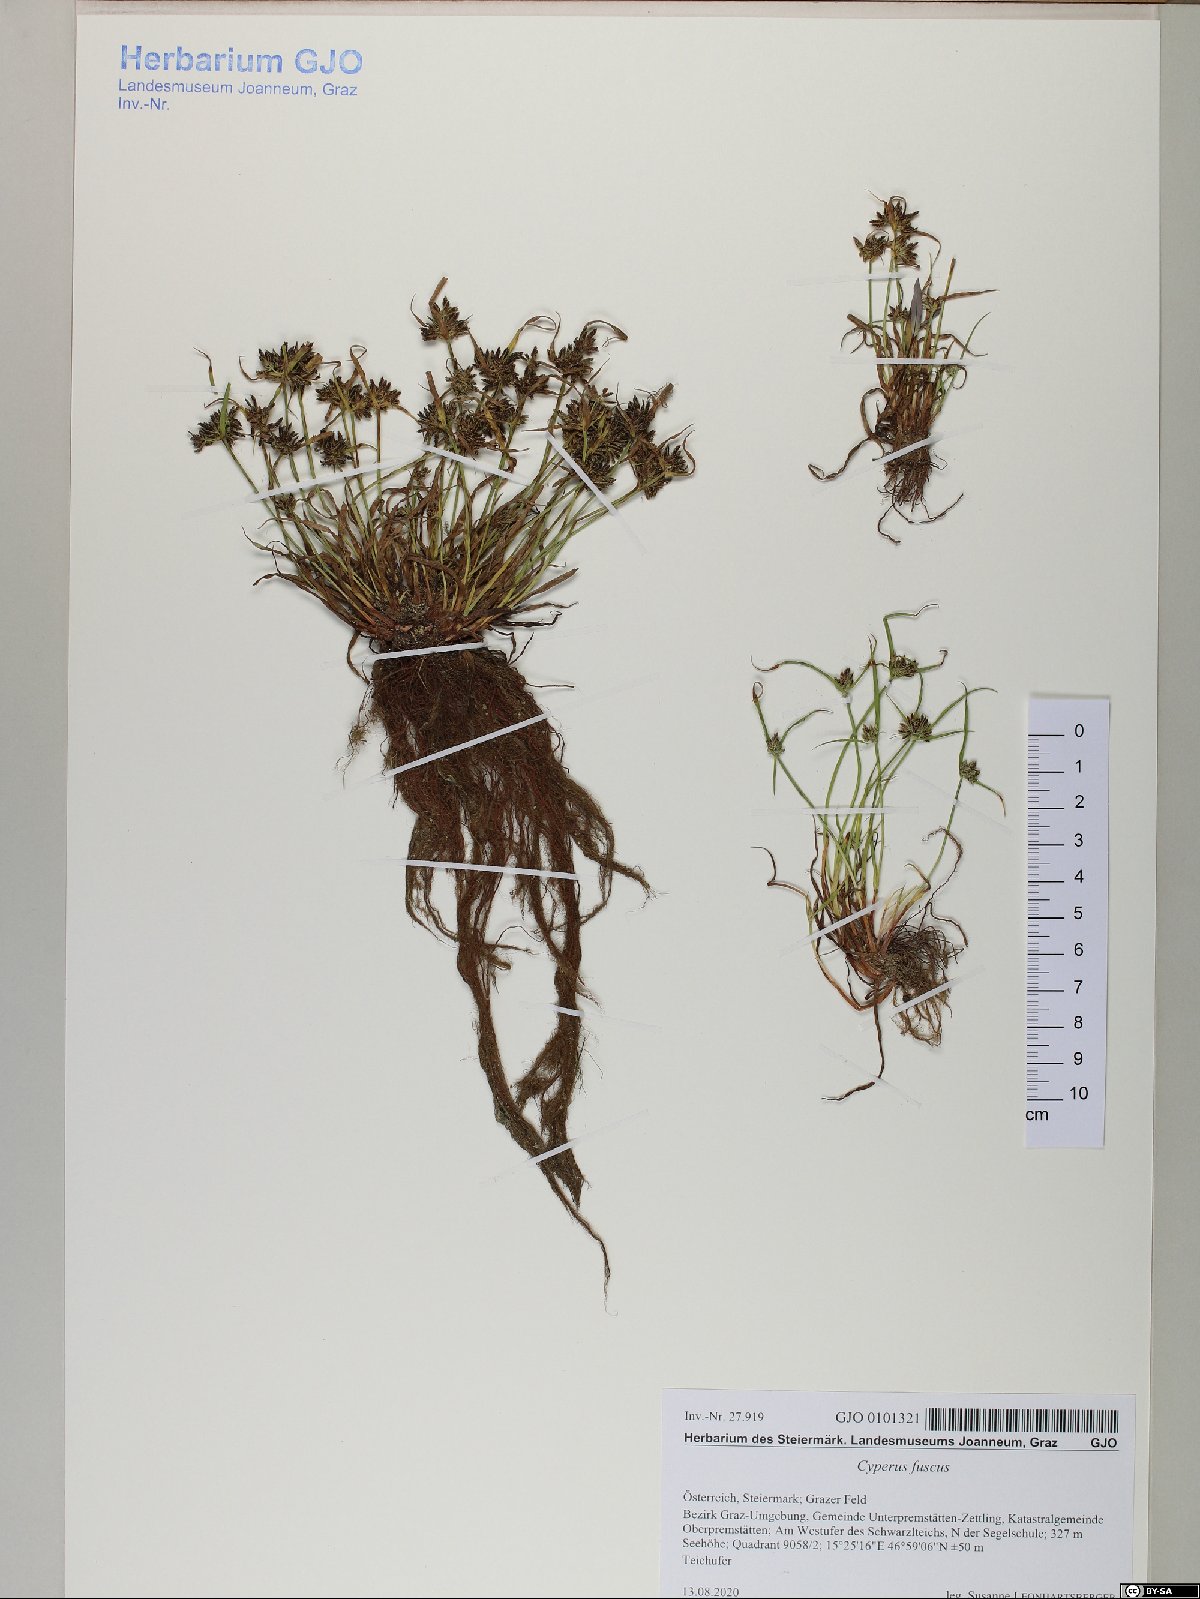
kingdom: Plantae
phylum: Tracheophyta
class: Liliopsida
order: Poales
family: Cyperaceae
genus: Cyperus
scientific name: Cyperus fuscus
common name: Brown galingale
